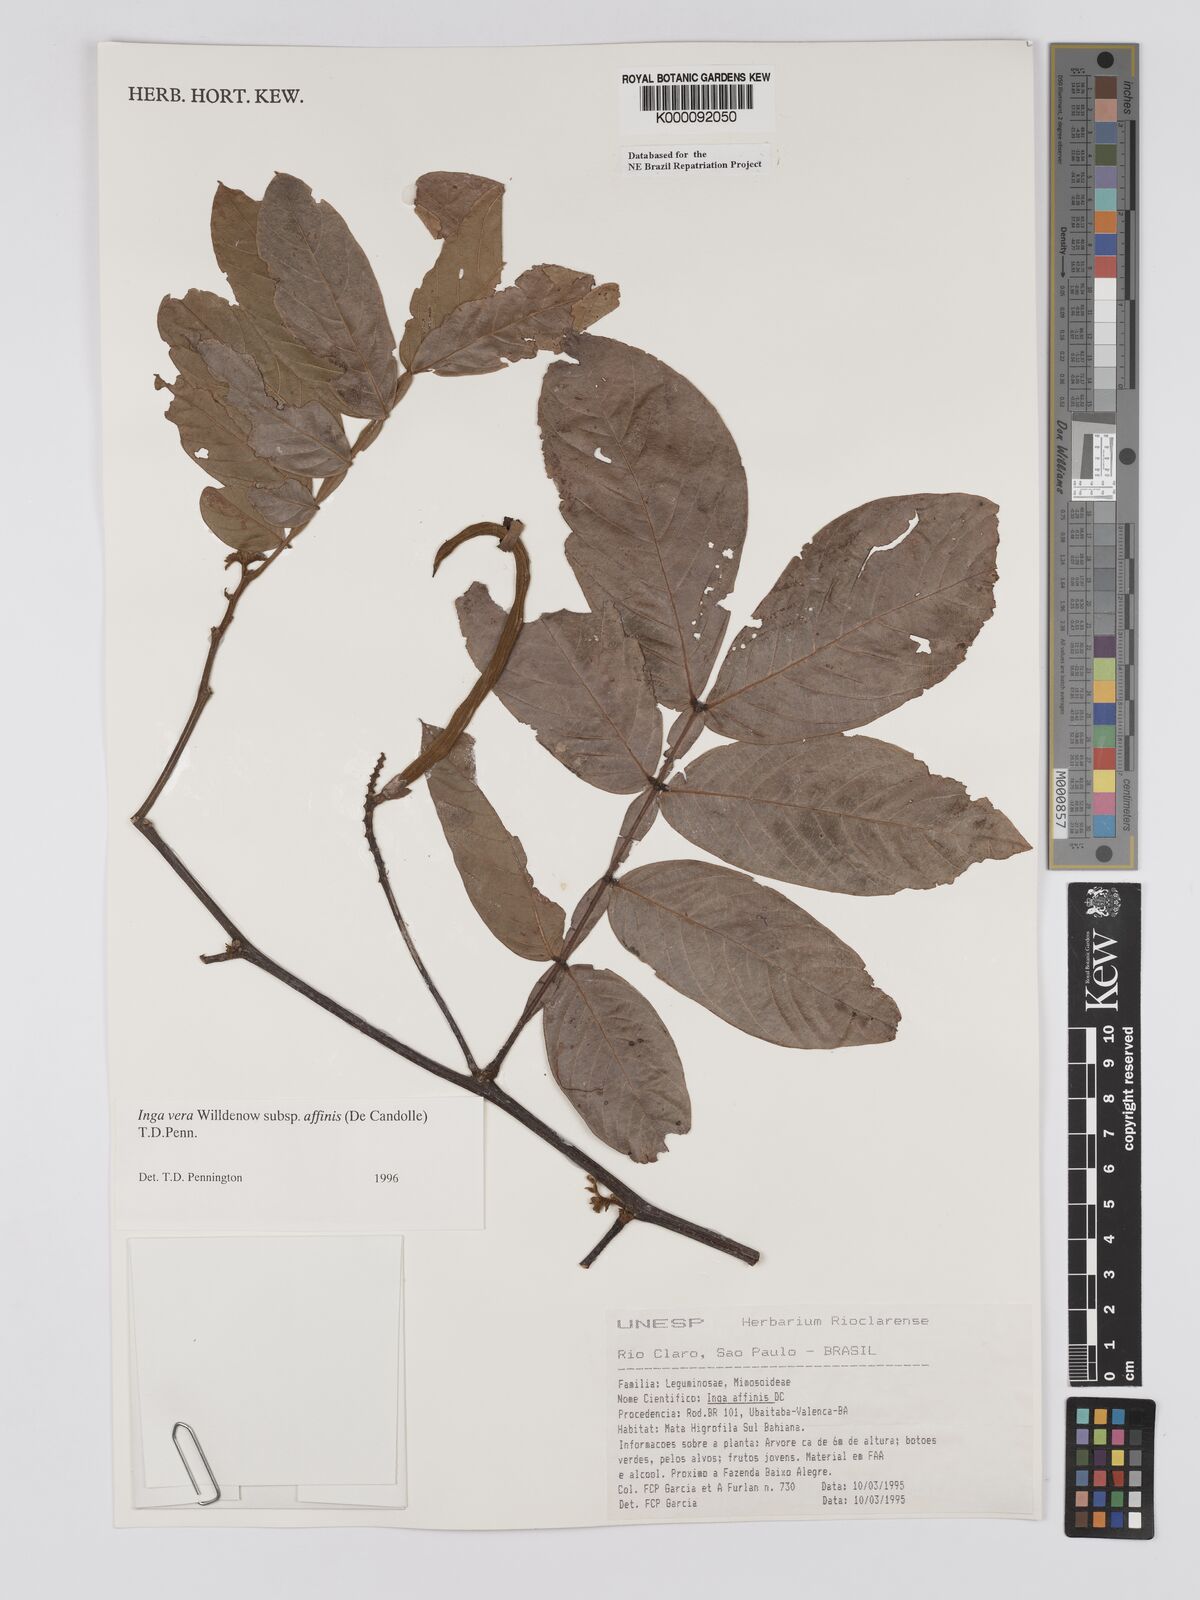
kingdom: Plantae
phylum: Tracheophyta
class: Magnoliopsida
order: Fabales
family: Fabaceae
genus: Inga
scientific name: Inga affinis
